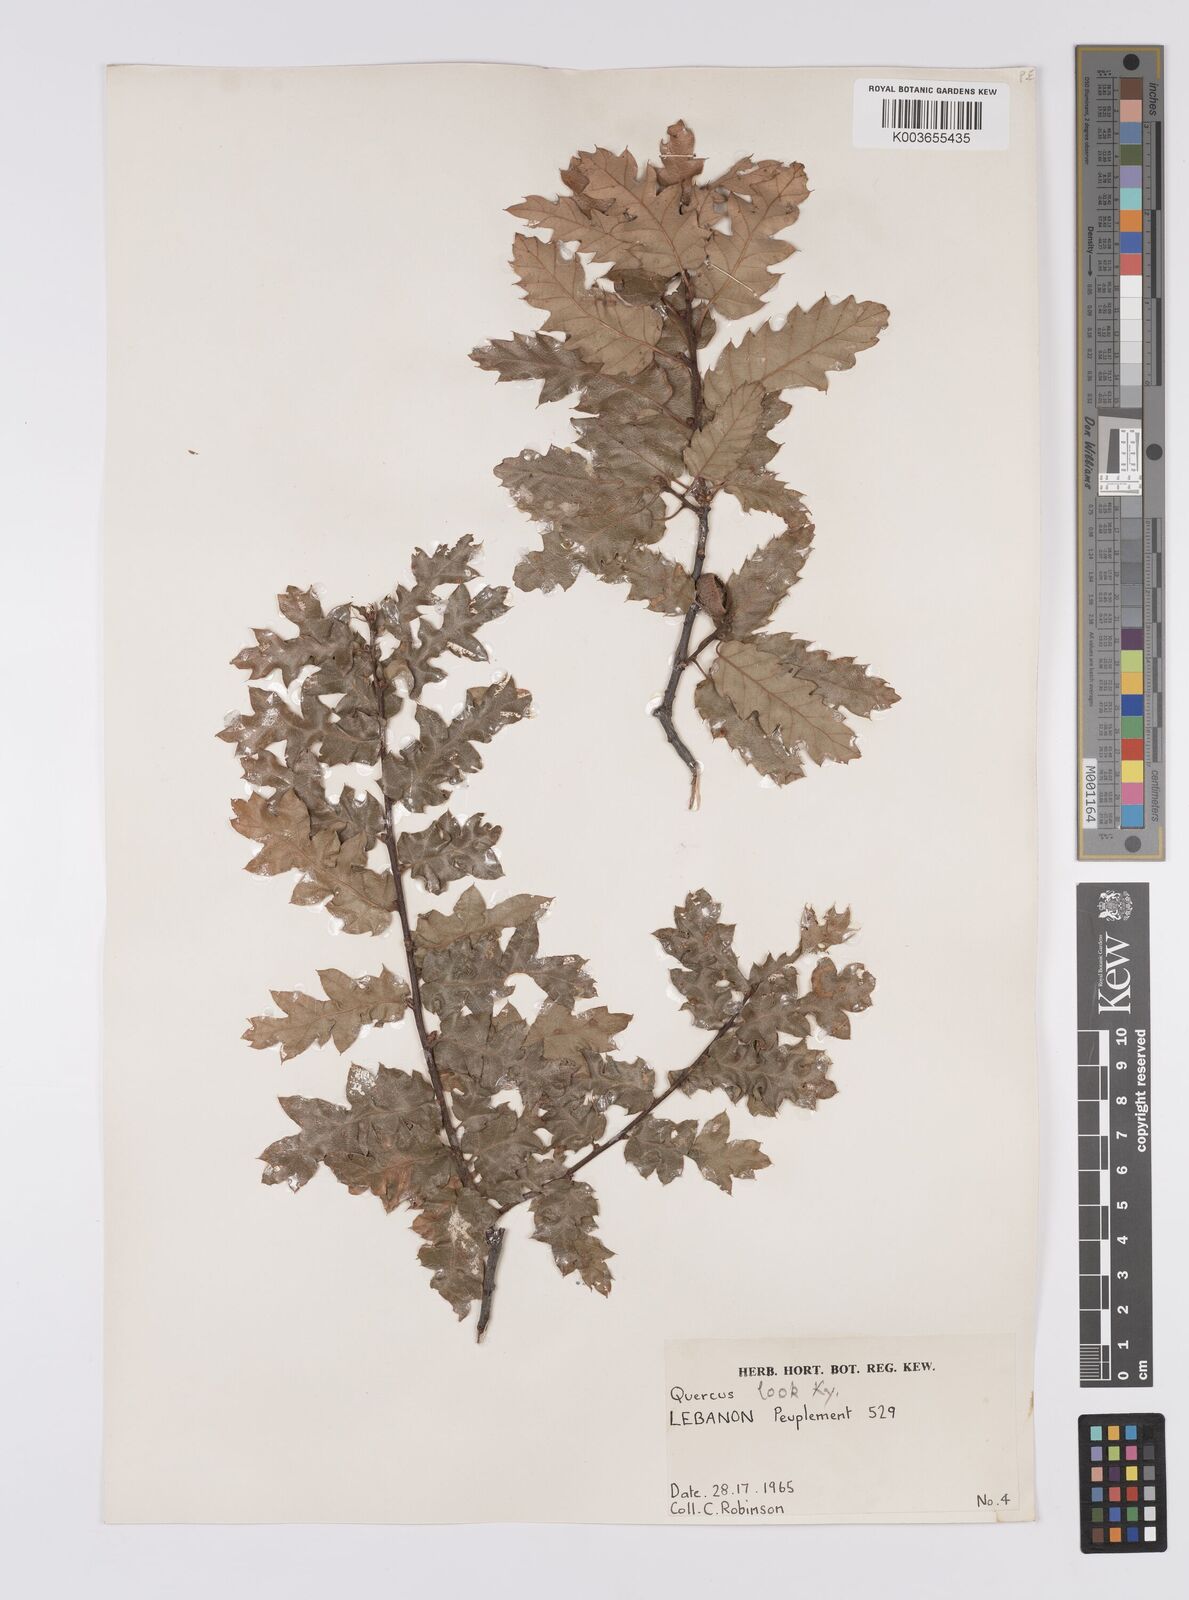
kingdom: Plantae
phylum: Tracheophyta
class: Magnoliopsida
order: Fagales
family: Fagaceae
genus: Quercus
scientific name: Quercus look
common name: Look oak
